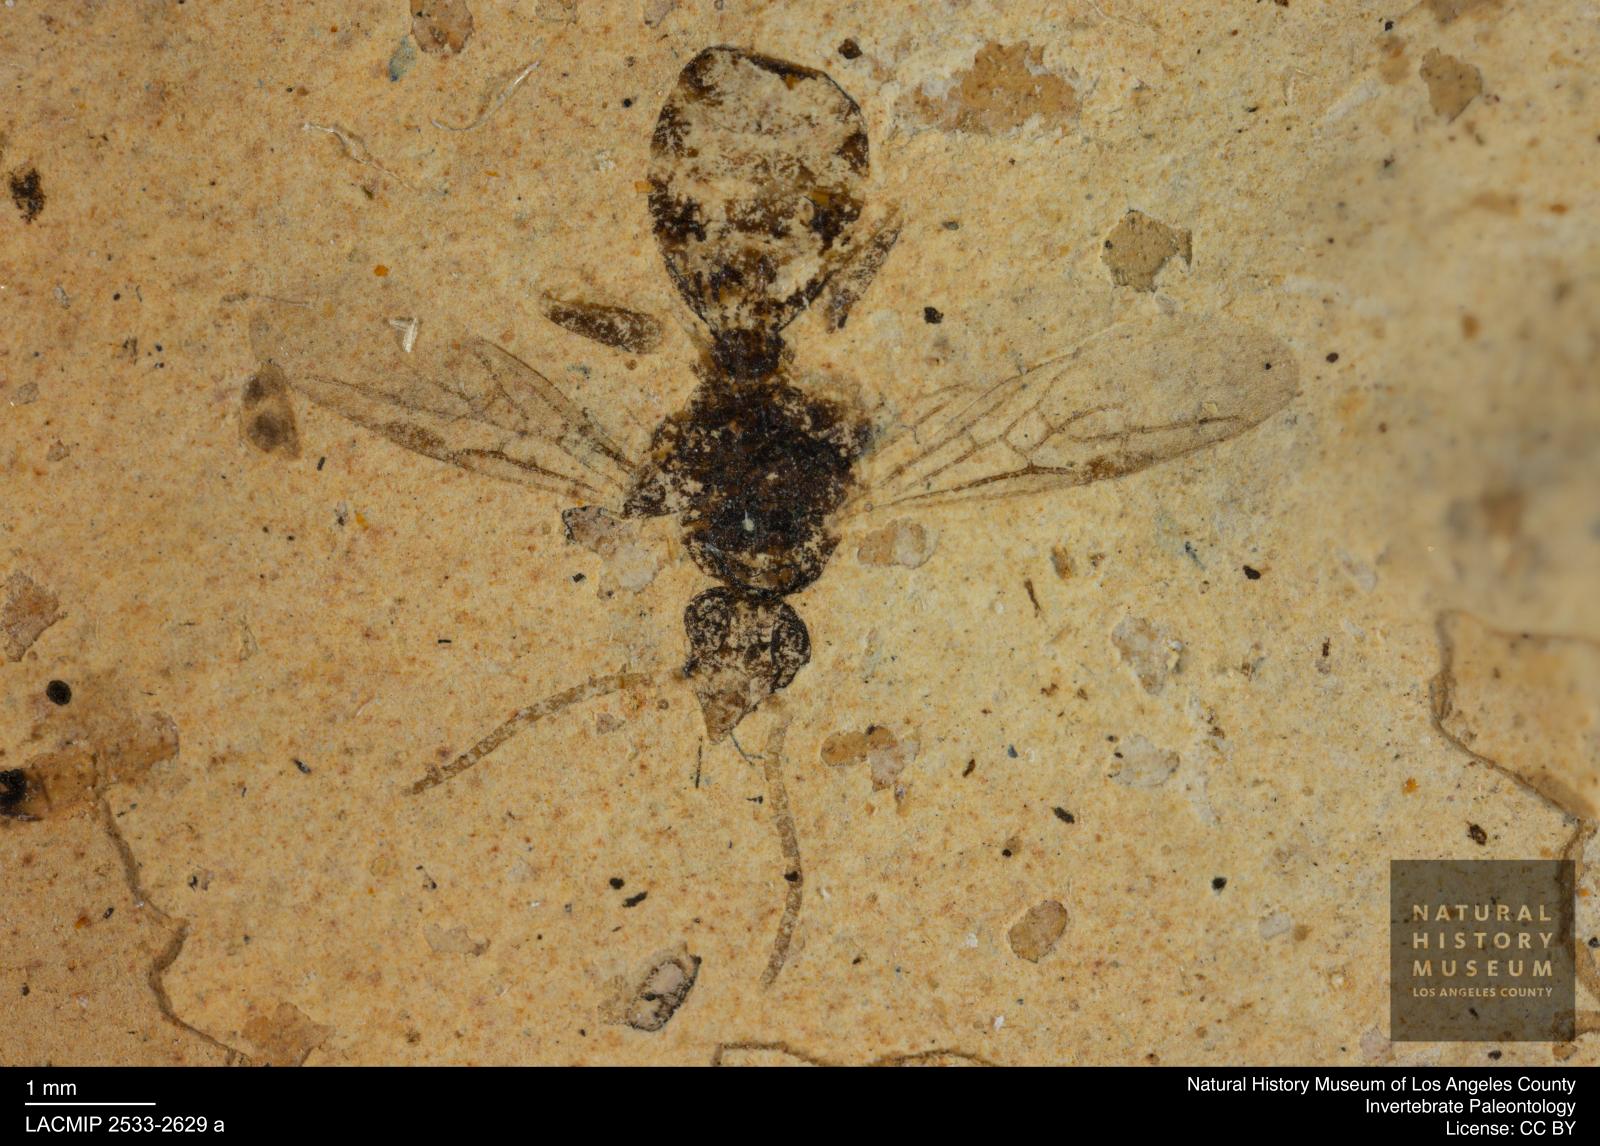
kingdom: Animalia
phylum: Arthropoda
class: Insecta
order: Diptera
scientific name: Diptera
